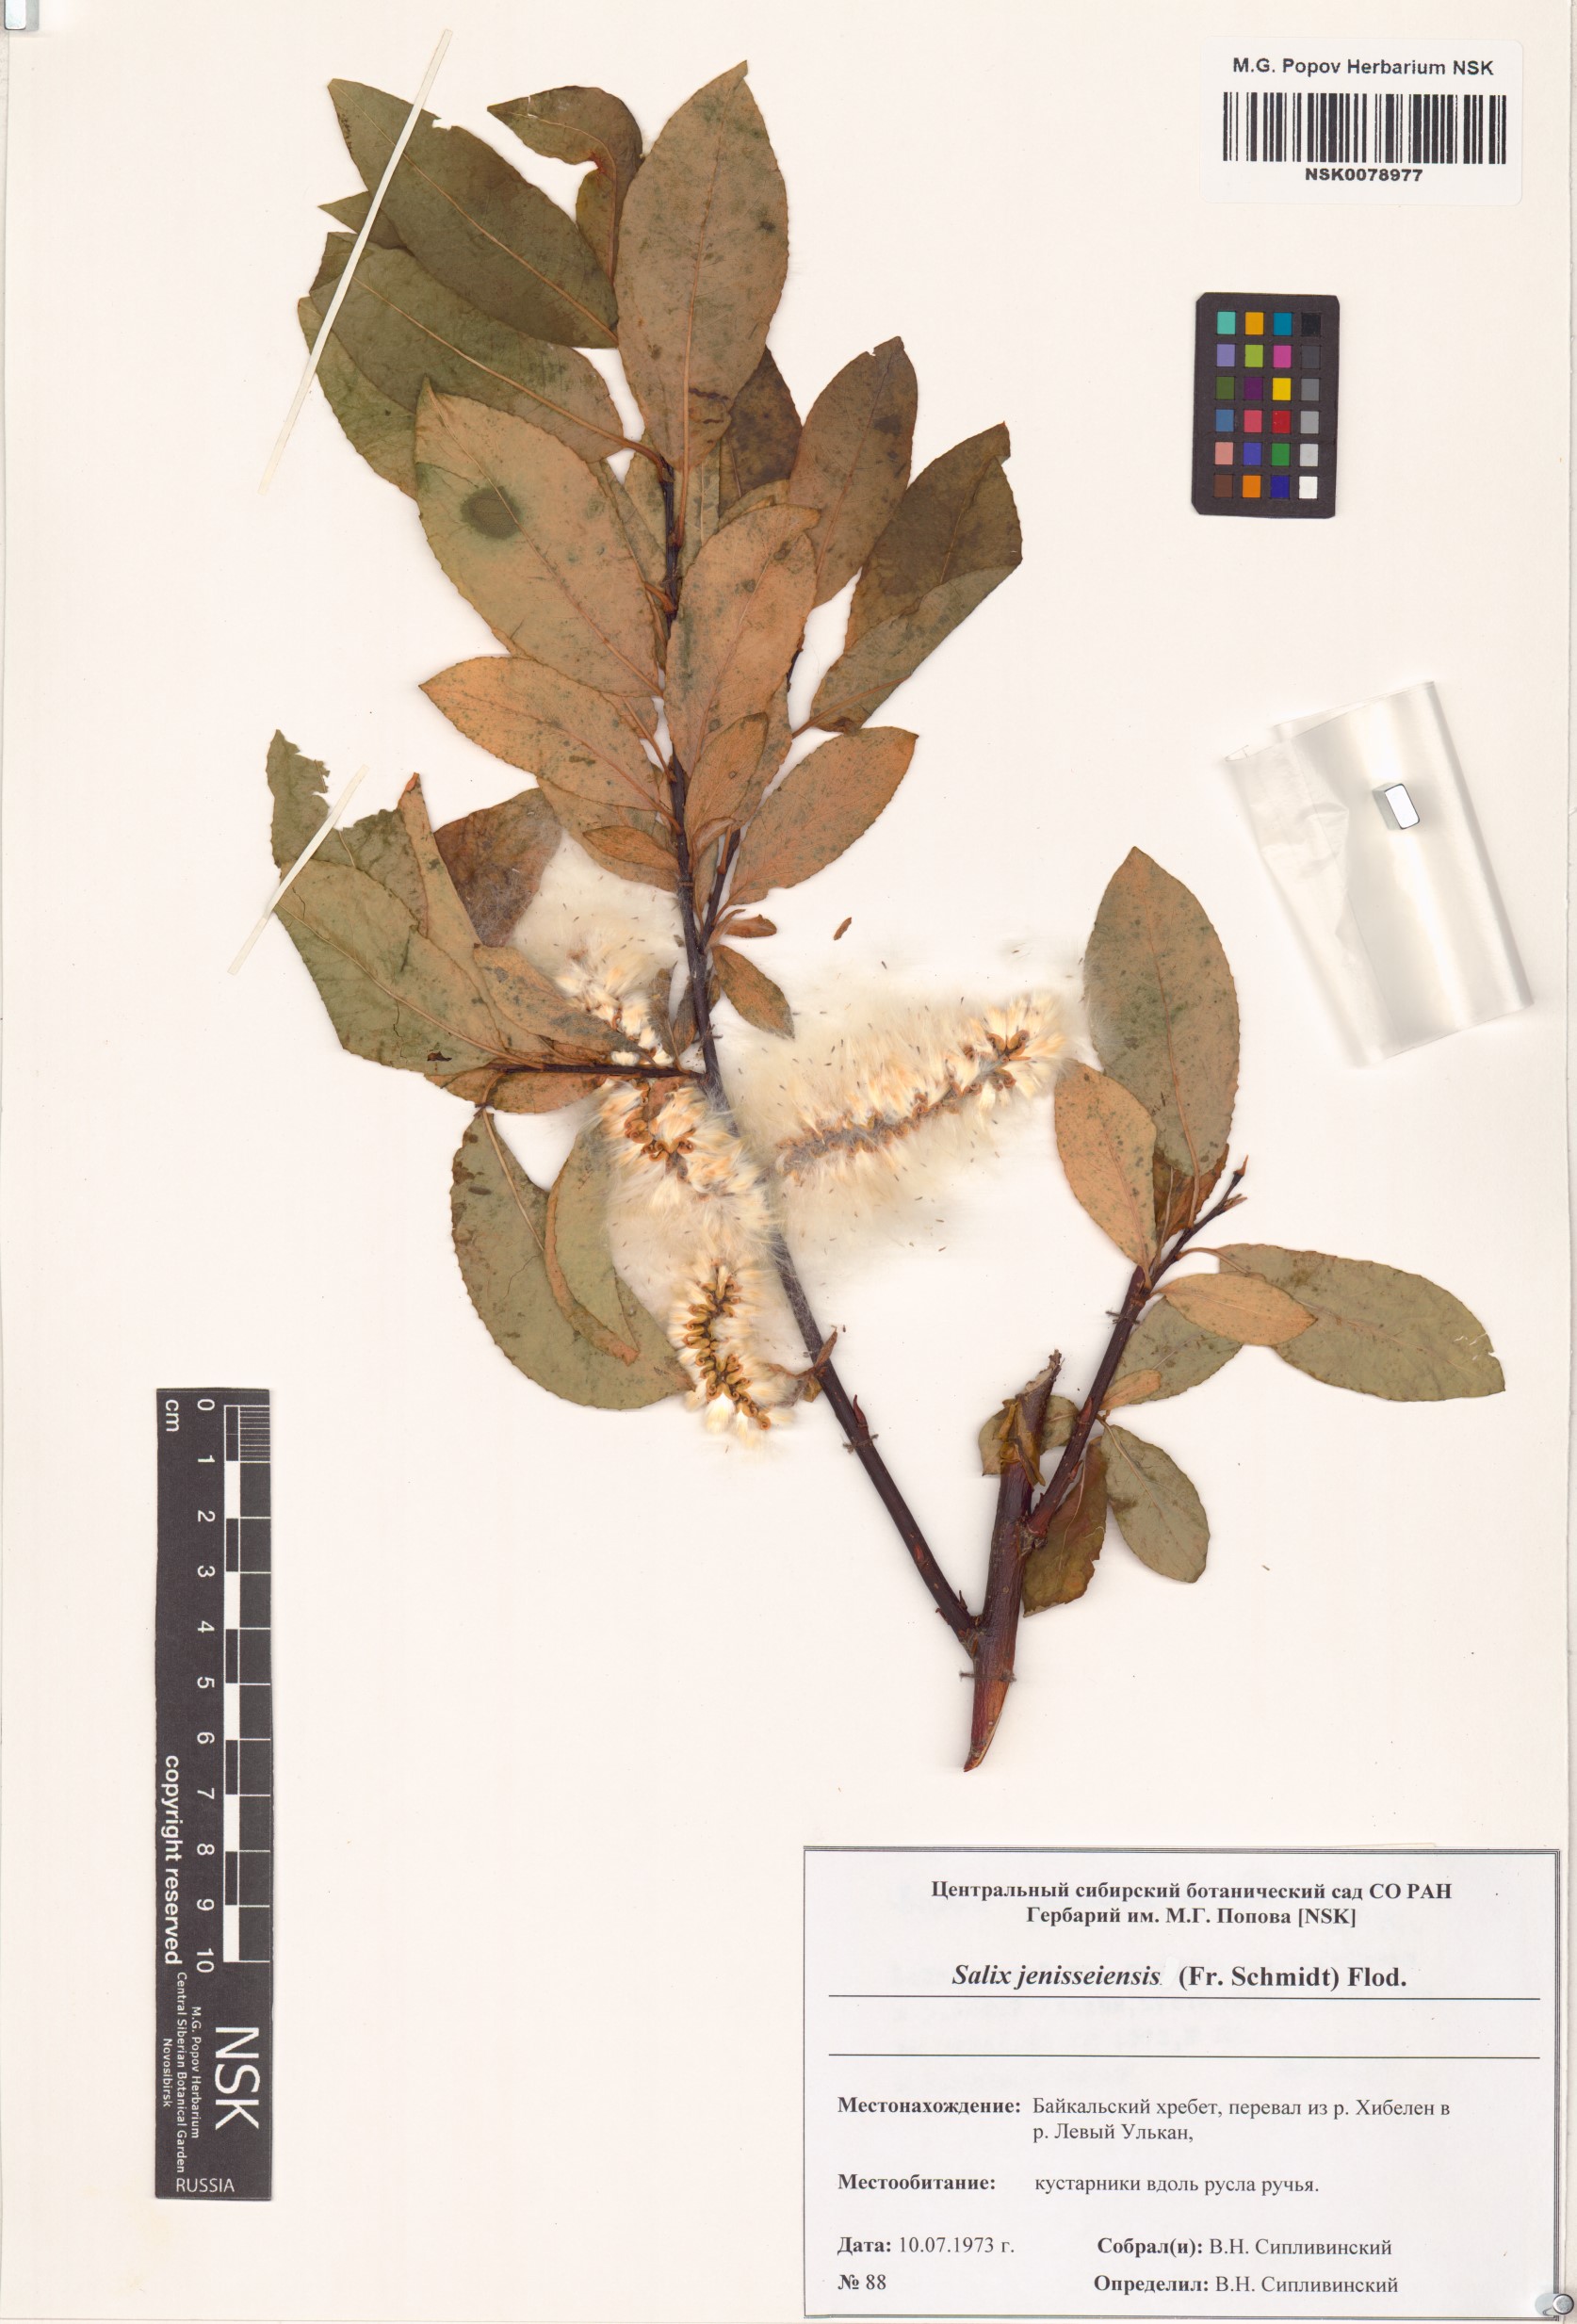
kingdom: Plantae
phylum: Tracheophyta
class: Magnoliopsida
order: Malpighiales
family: Salicaceae
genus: Salix
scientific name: Salix jenisseensis
